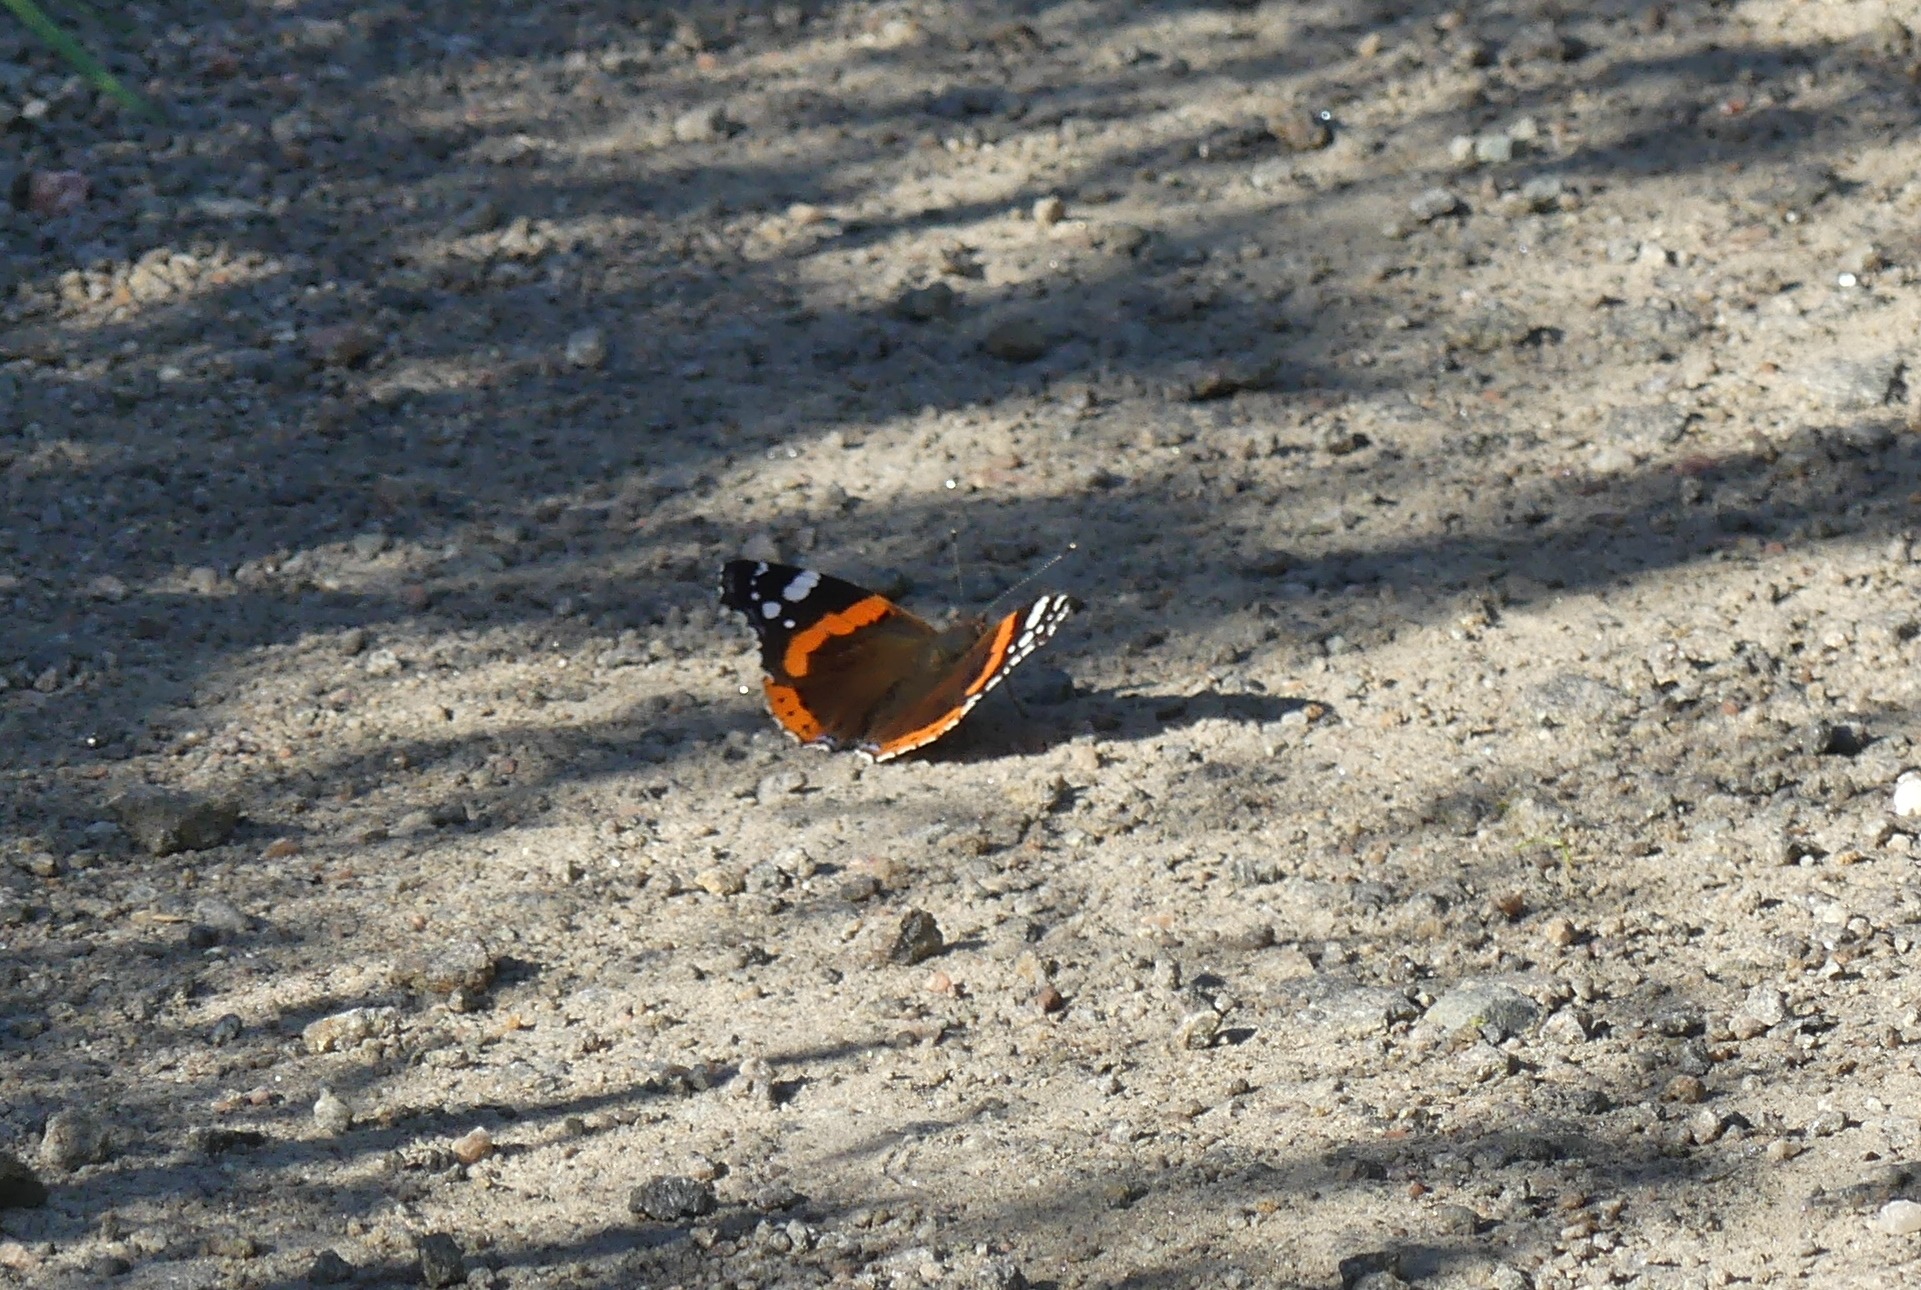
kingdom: Animalia
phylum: Arthropoda
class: Insecta
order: Lepidoptera
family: Nymphalidae
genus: Vanessa
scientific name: Vanessa atalanta
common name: Admiral
